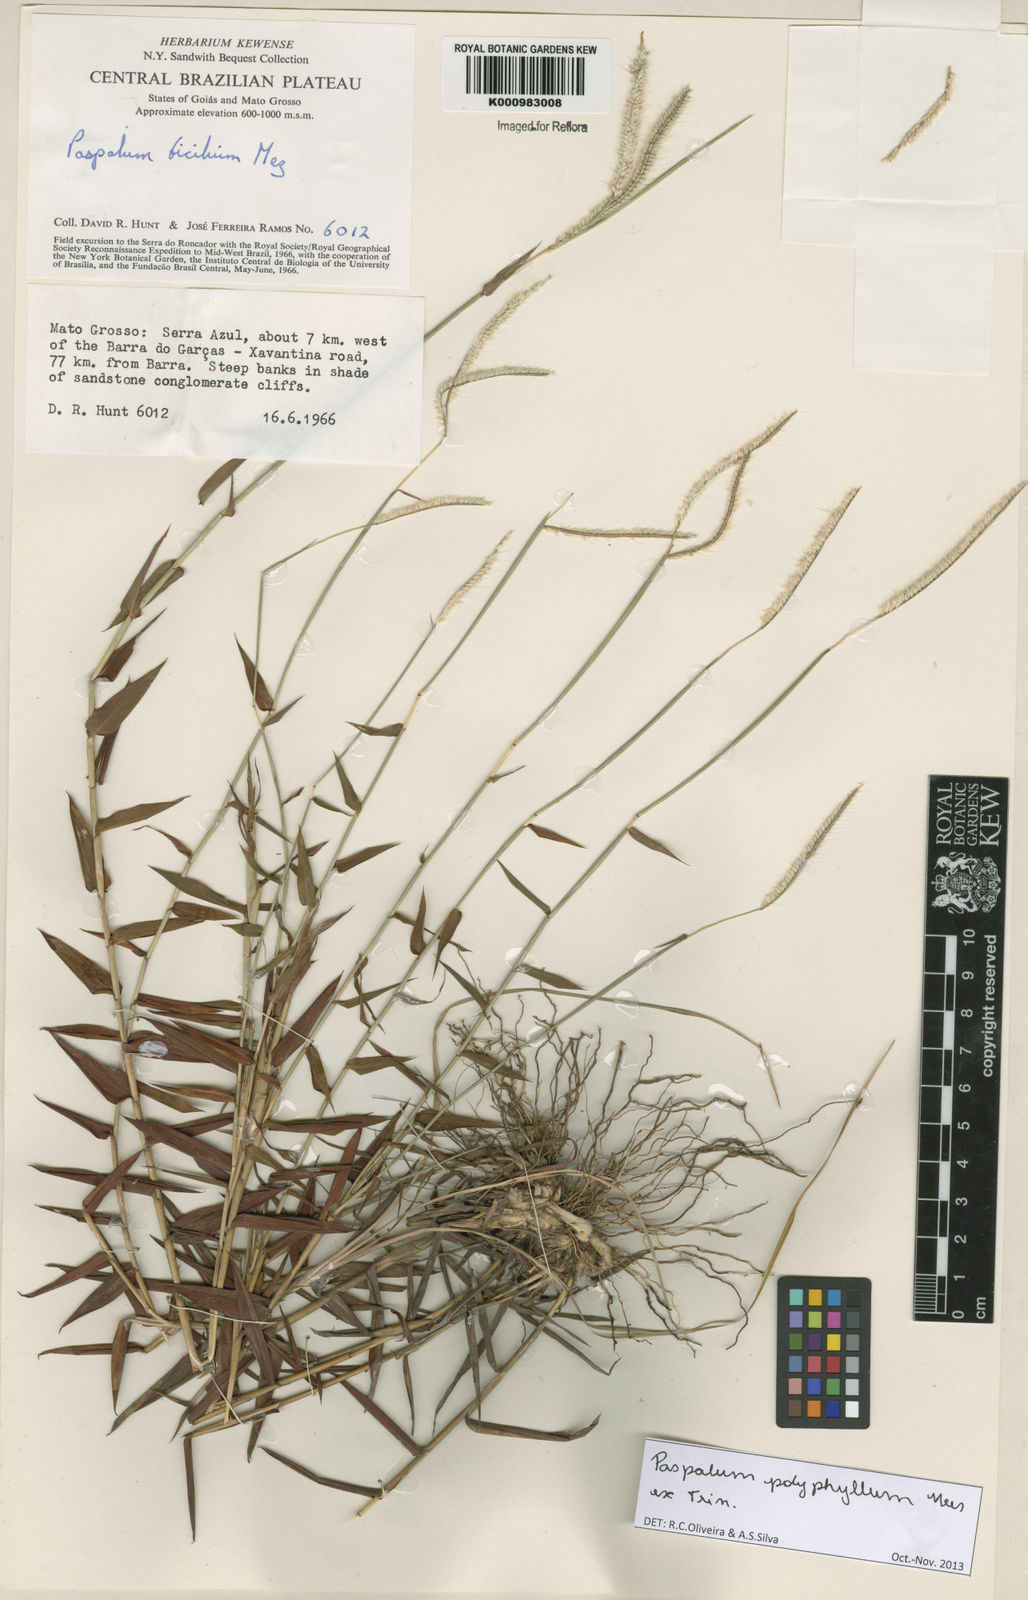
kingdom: Plantae
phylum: Tracheophyta
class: Liliopsida
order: Poales
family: Poaceae
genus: Paspalum
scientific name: Paspalum
